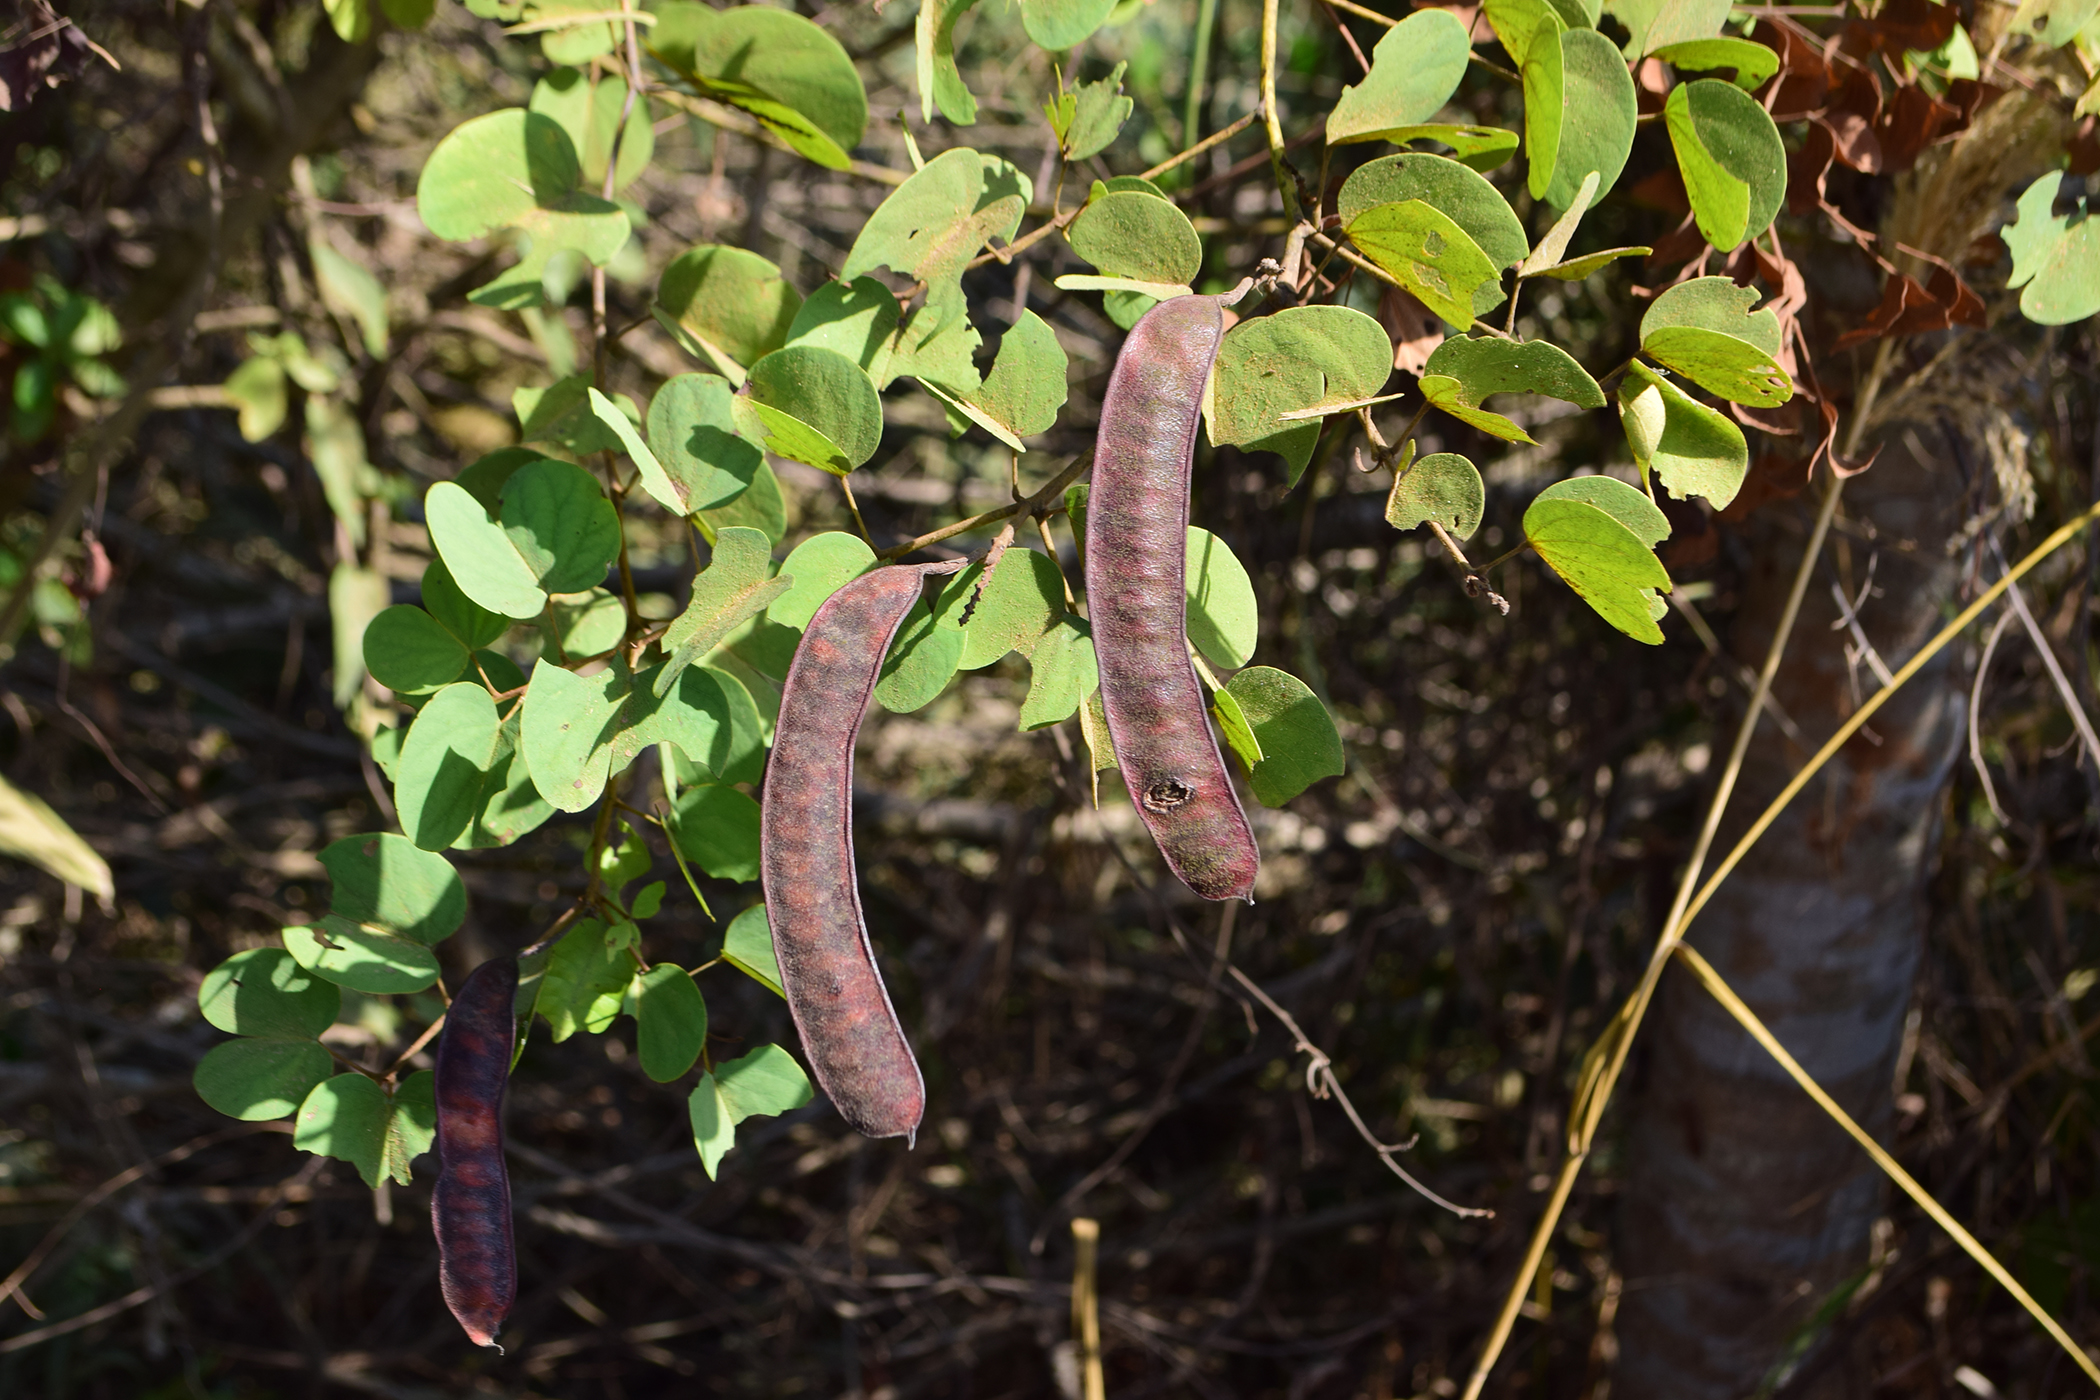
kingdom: Plantae
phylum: Tracheophyta
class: Magnoliopsida
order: Fabales
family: Fabaceae
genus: Cheniella
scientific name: Cheniella lakhonensis
